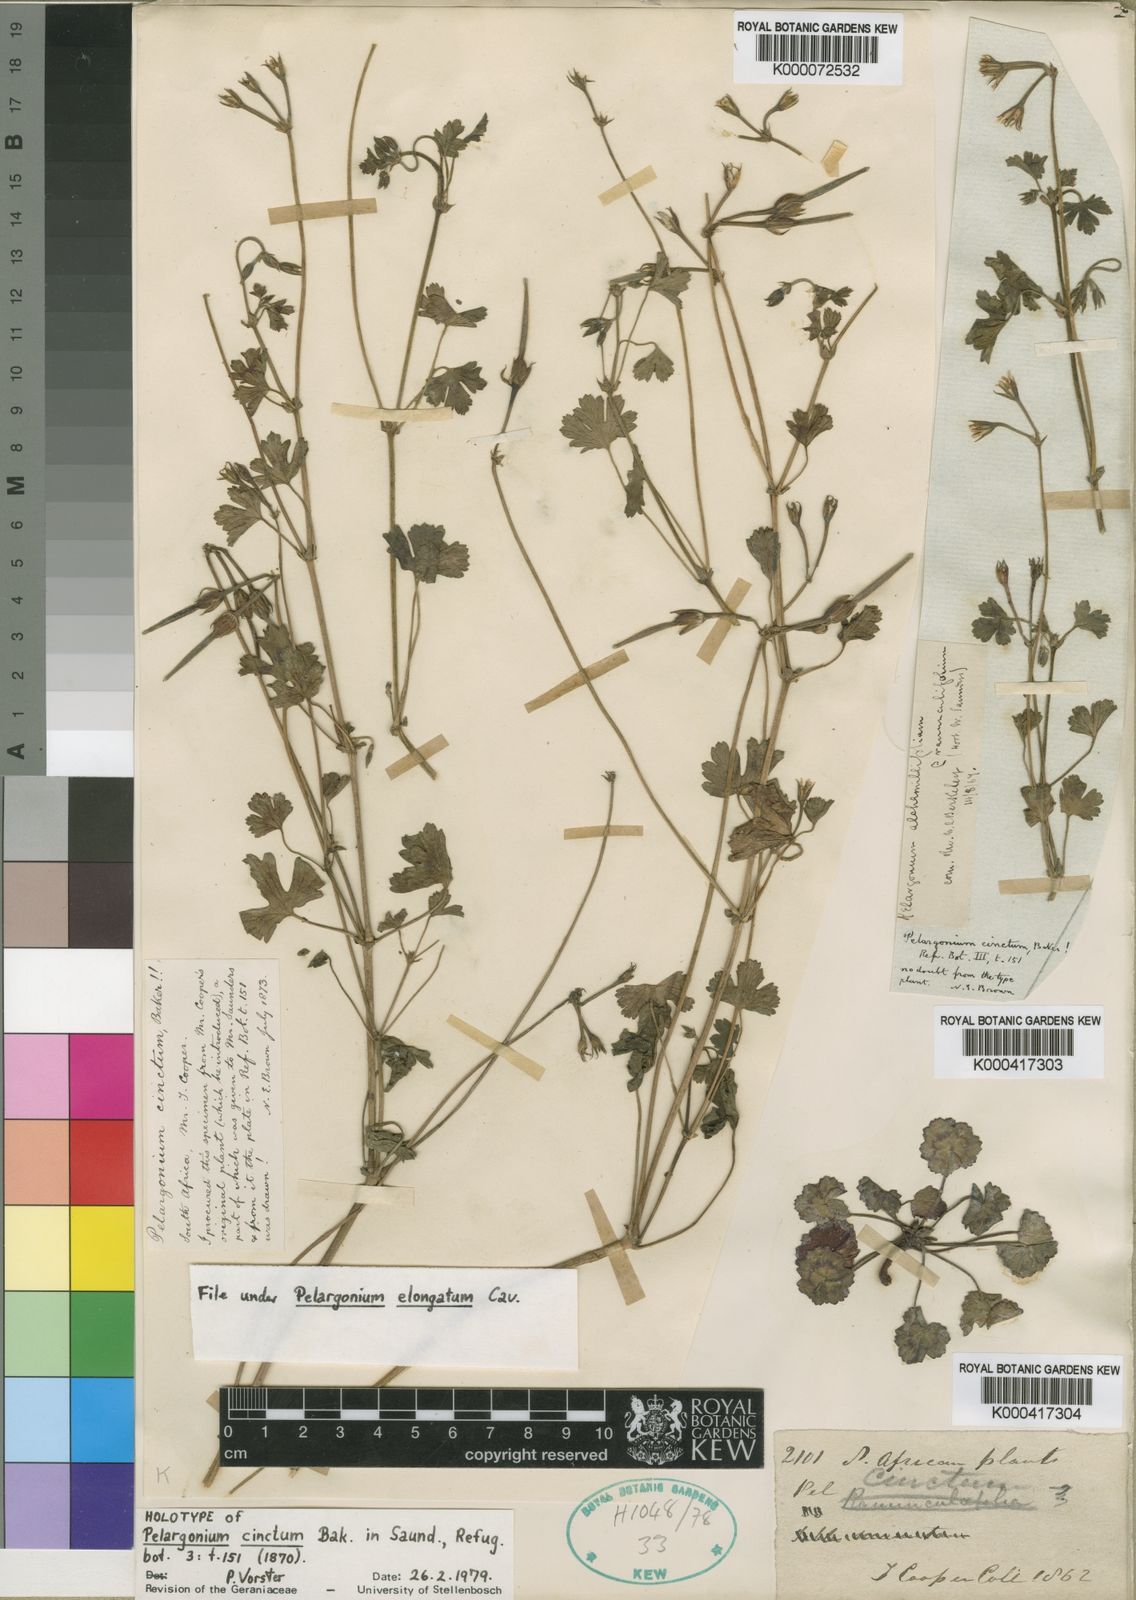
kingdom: Plantae
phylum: Tracheophyta
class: Magnoliopsida
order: Geraniales
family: Geraniaceae
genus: Pelargonium
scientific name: Pelargonium elongatum
